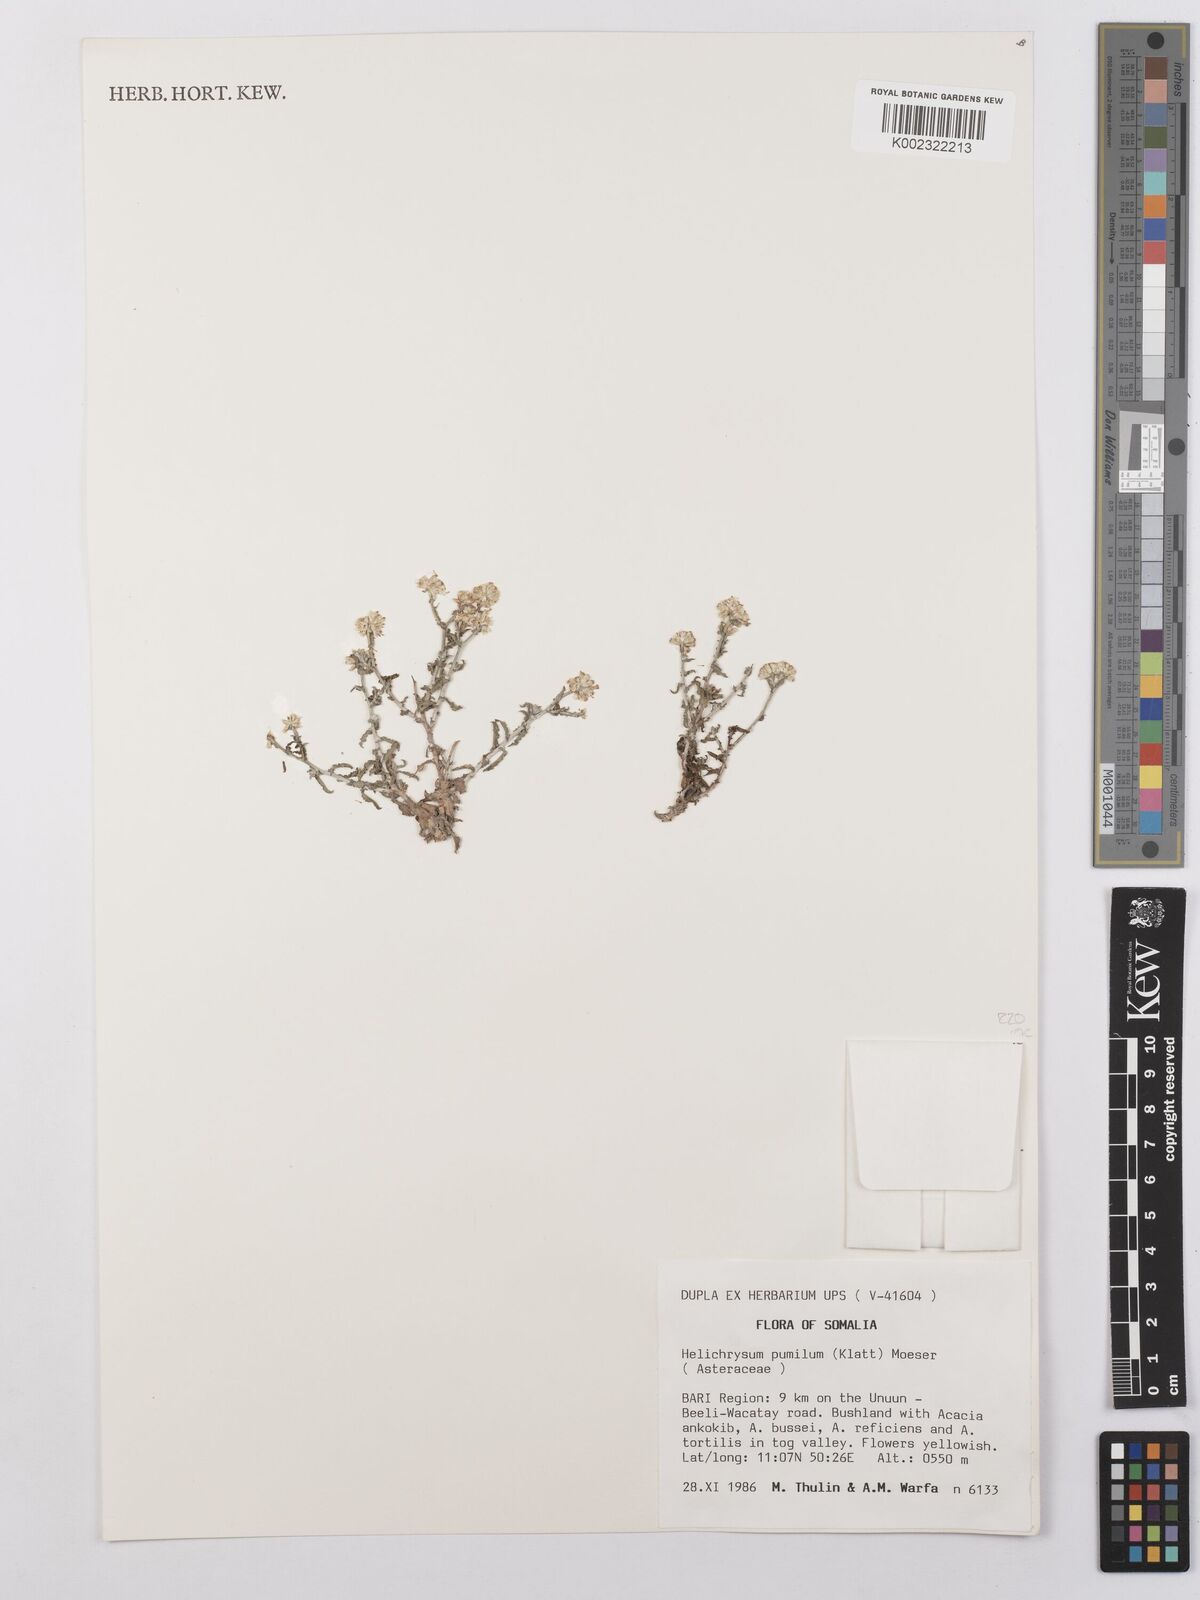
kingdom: Plantae
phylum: Tracheophyta
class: Magnoliopsida
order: Asterales
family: Asteraceae
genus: Helichrysum
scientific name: Helichrysum somalense
